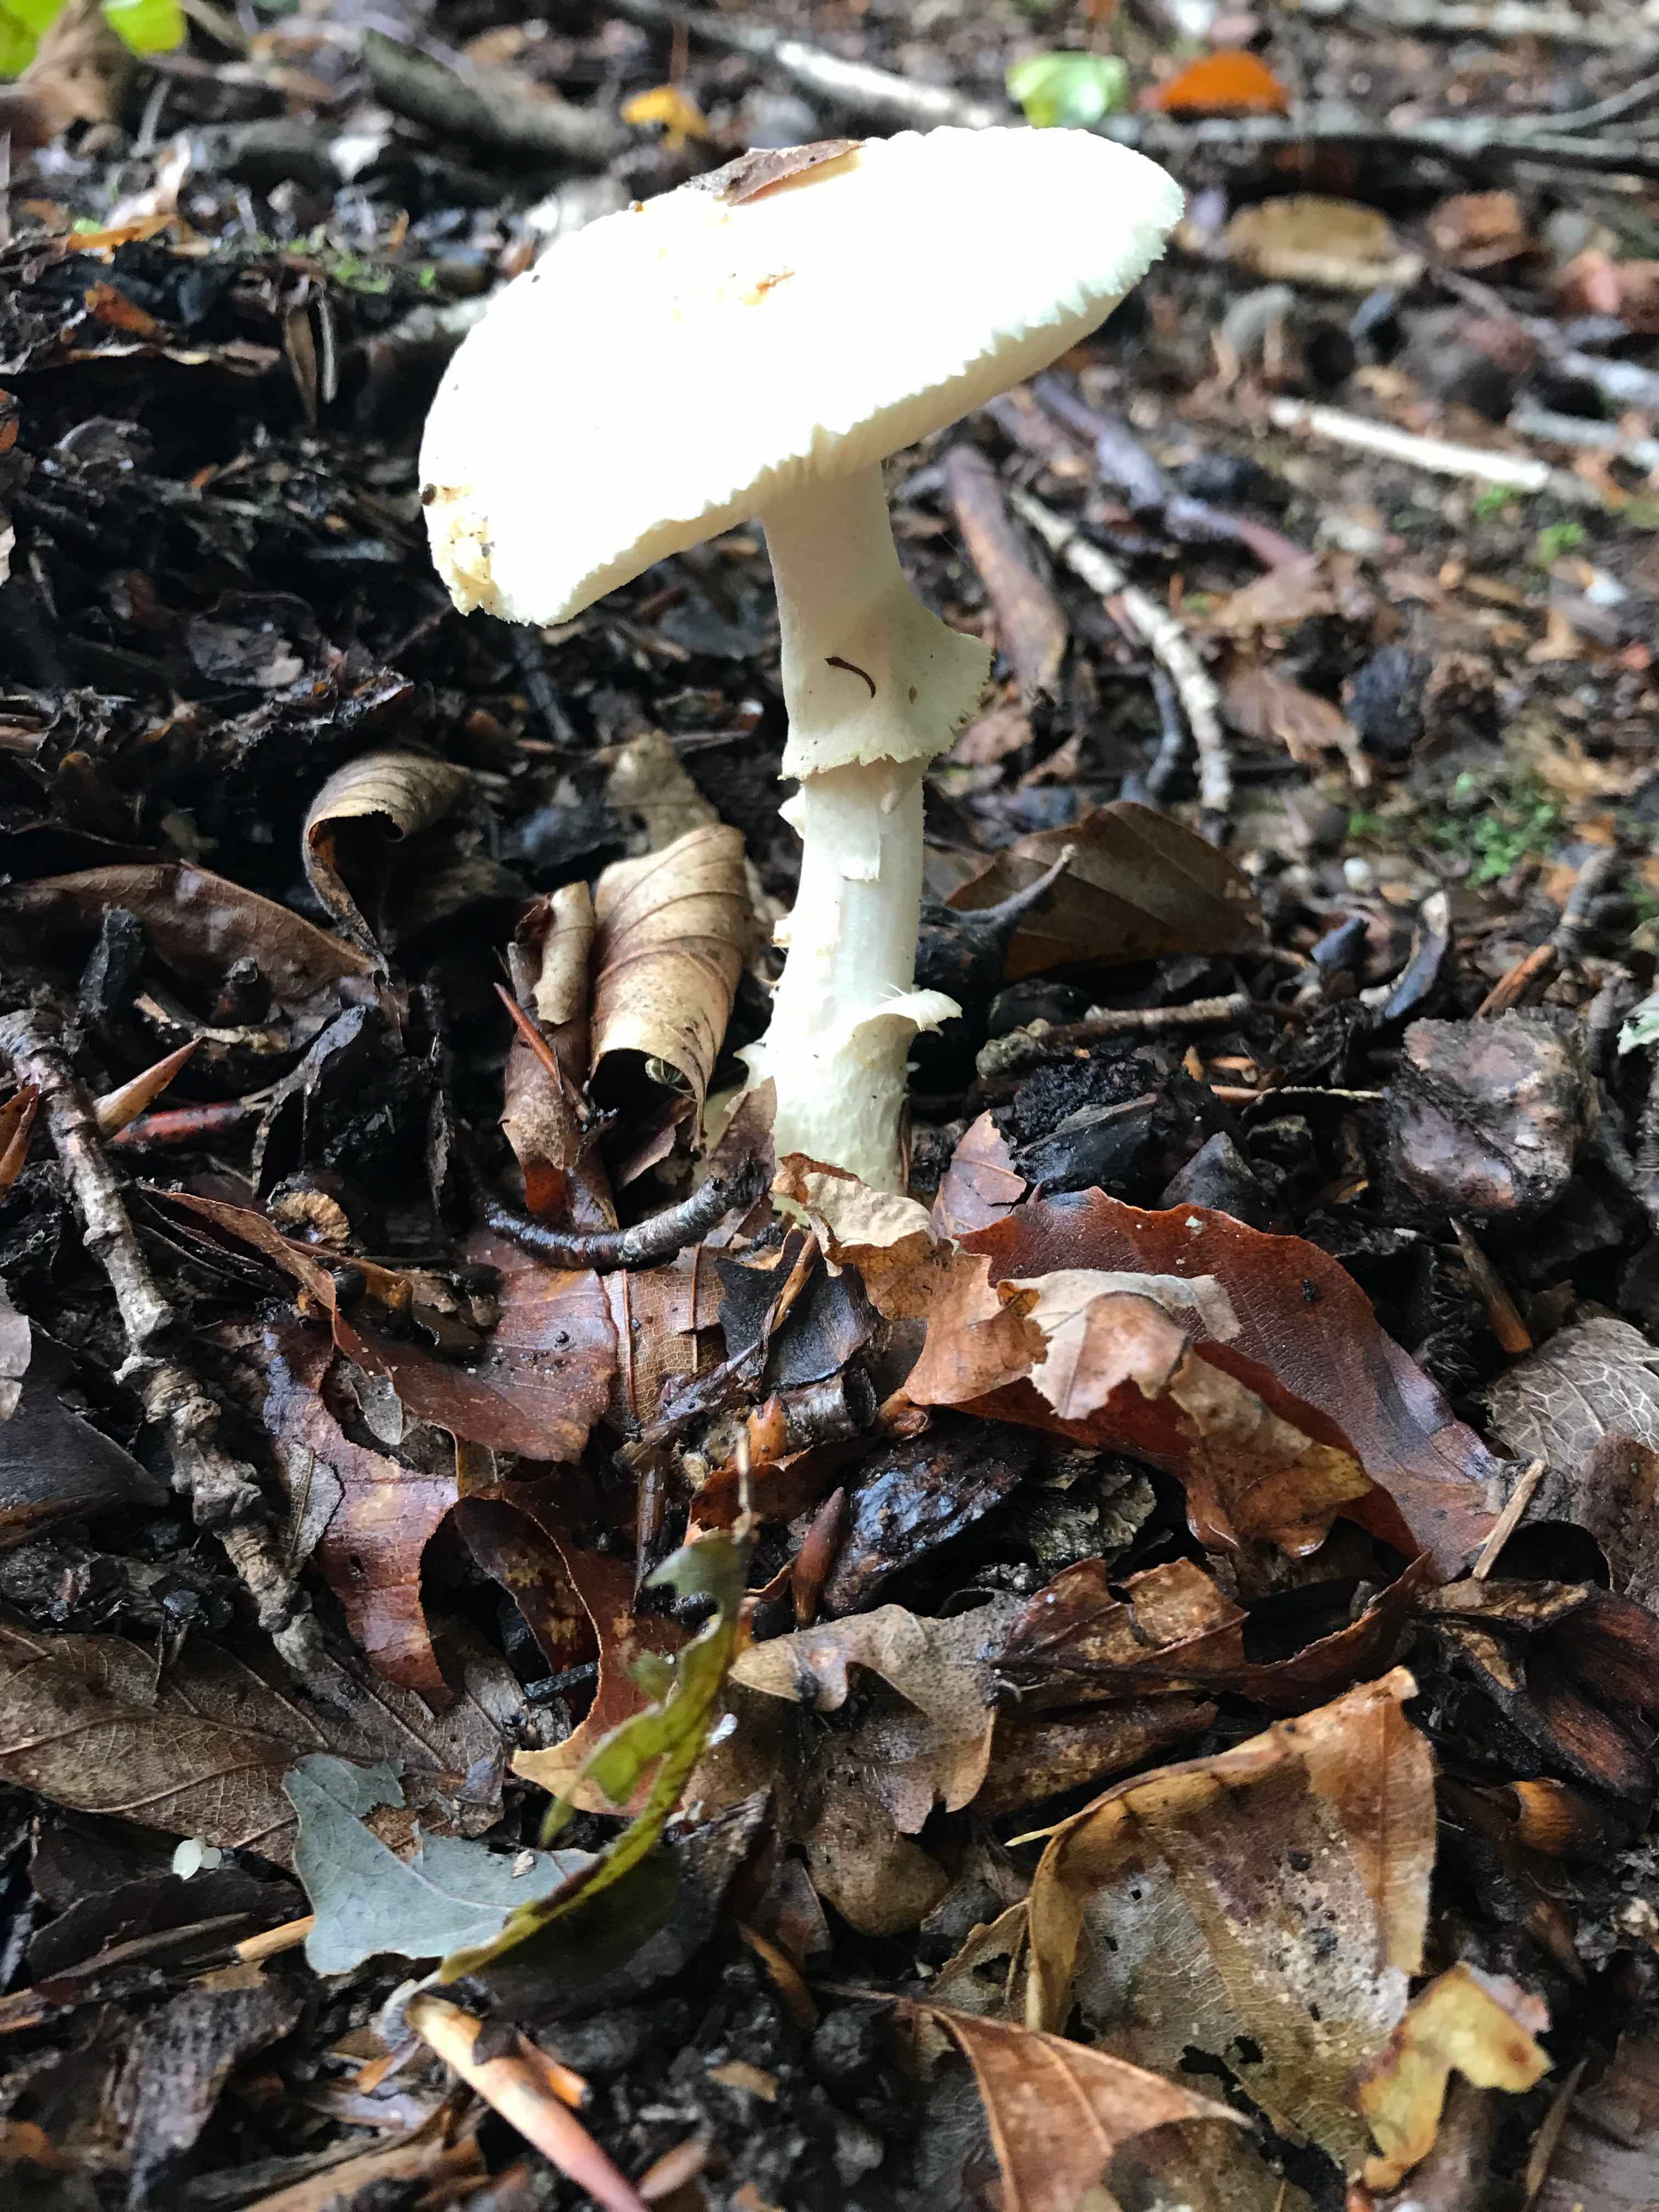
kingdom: Fungi
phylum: Basidiomycota
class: Agaricomycetes
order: Agaricales
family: Amanitaceae
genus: Amanita
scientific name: Amanita citrina
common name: kugleknoldet fluesvamp
